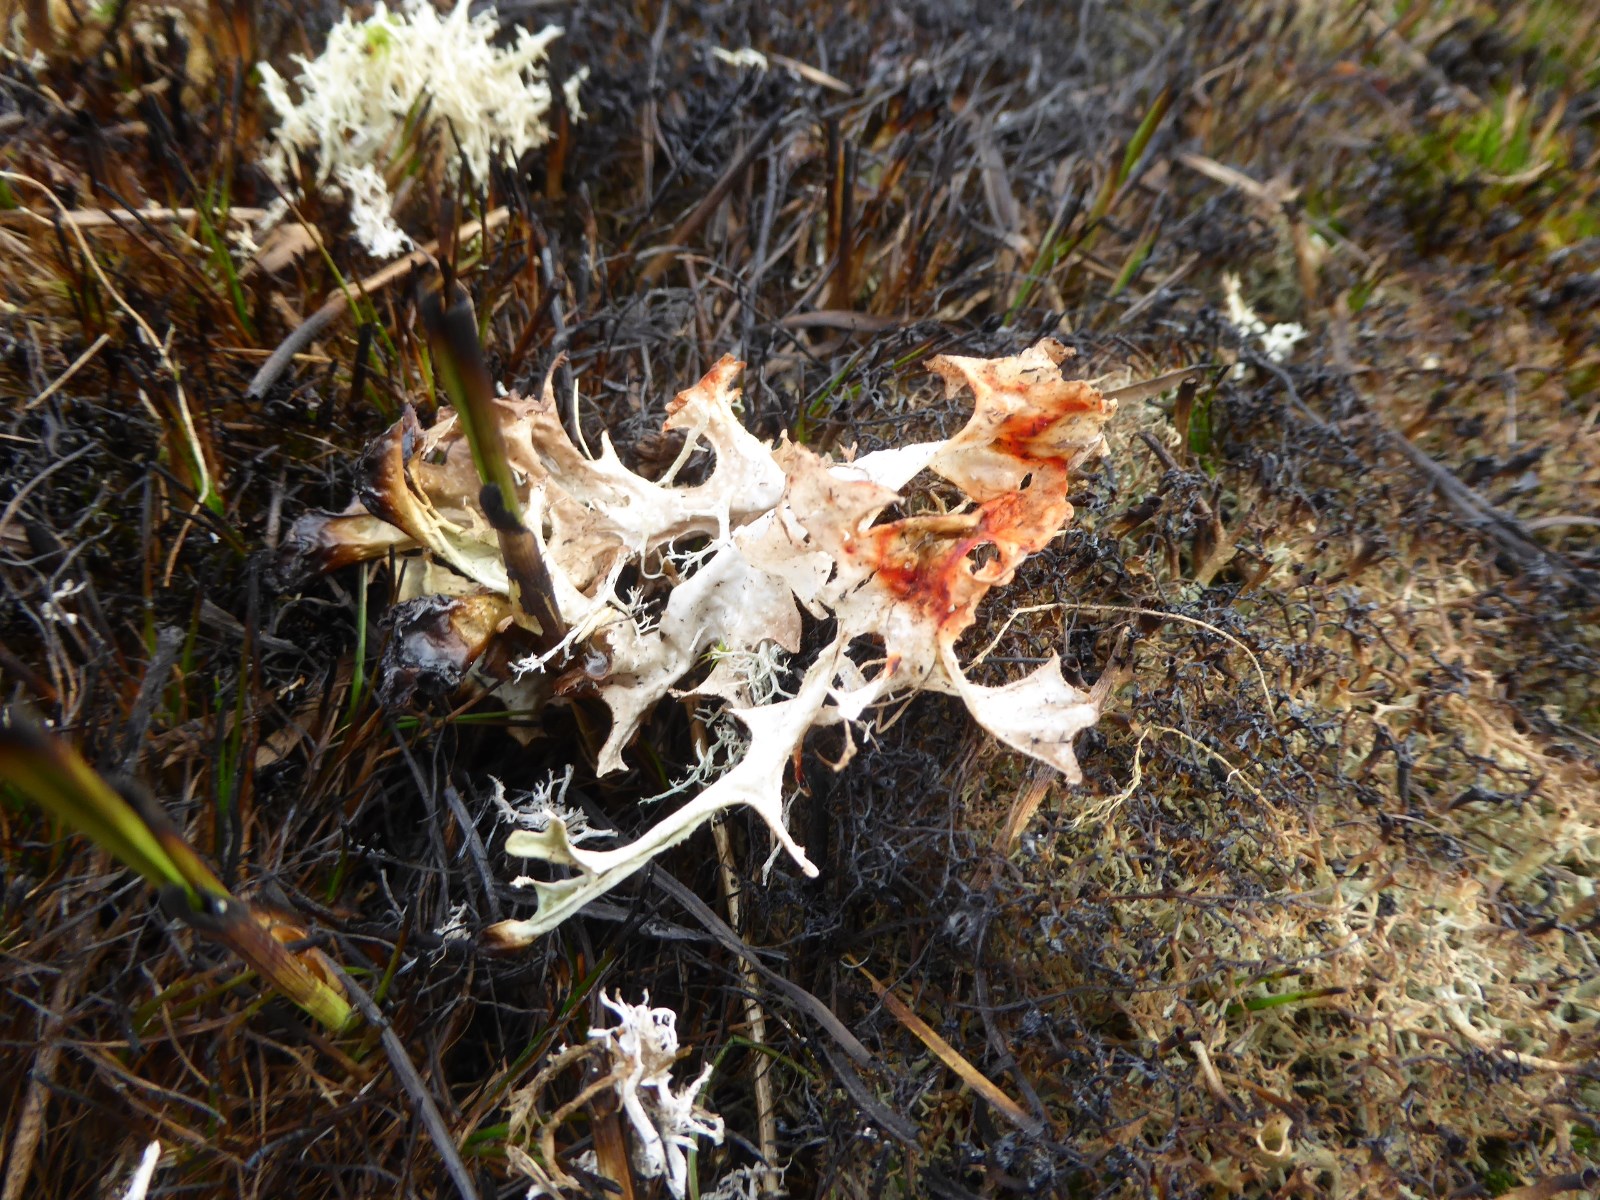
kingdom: Fungi
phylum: Ascomycota
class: Lecanoromycetes
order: Lecanorales
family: Parmeliaceae
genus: Cetraria
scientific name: Cetraria islandica
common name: islandsk kruslav
